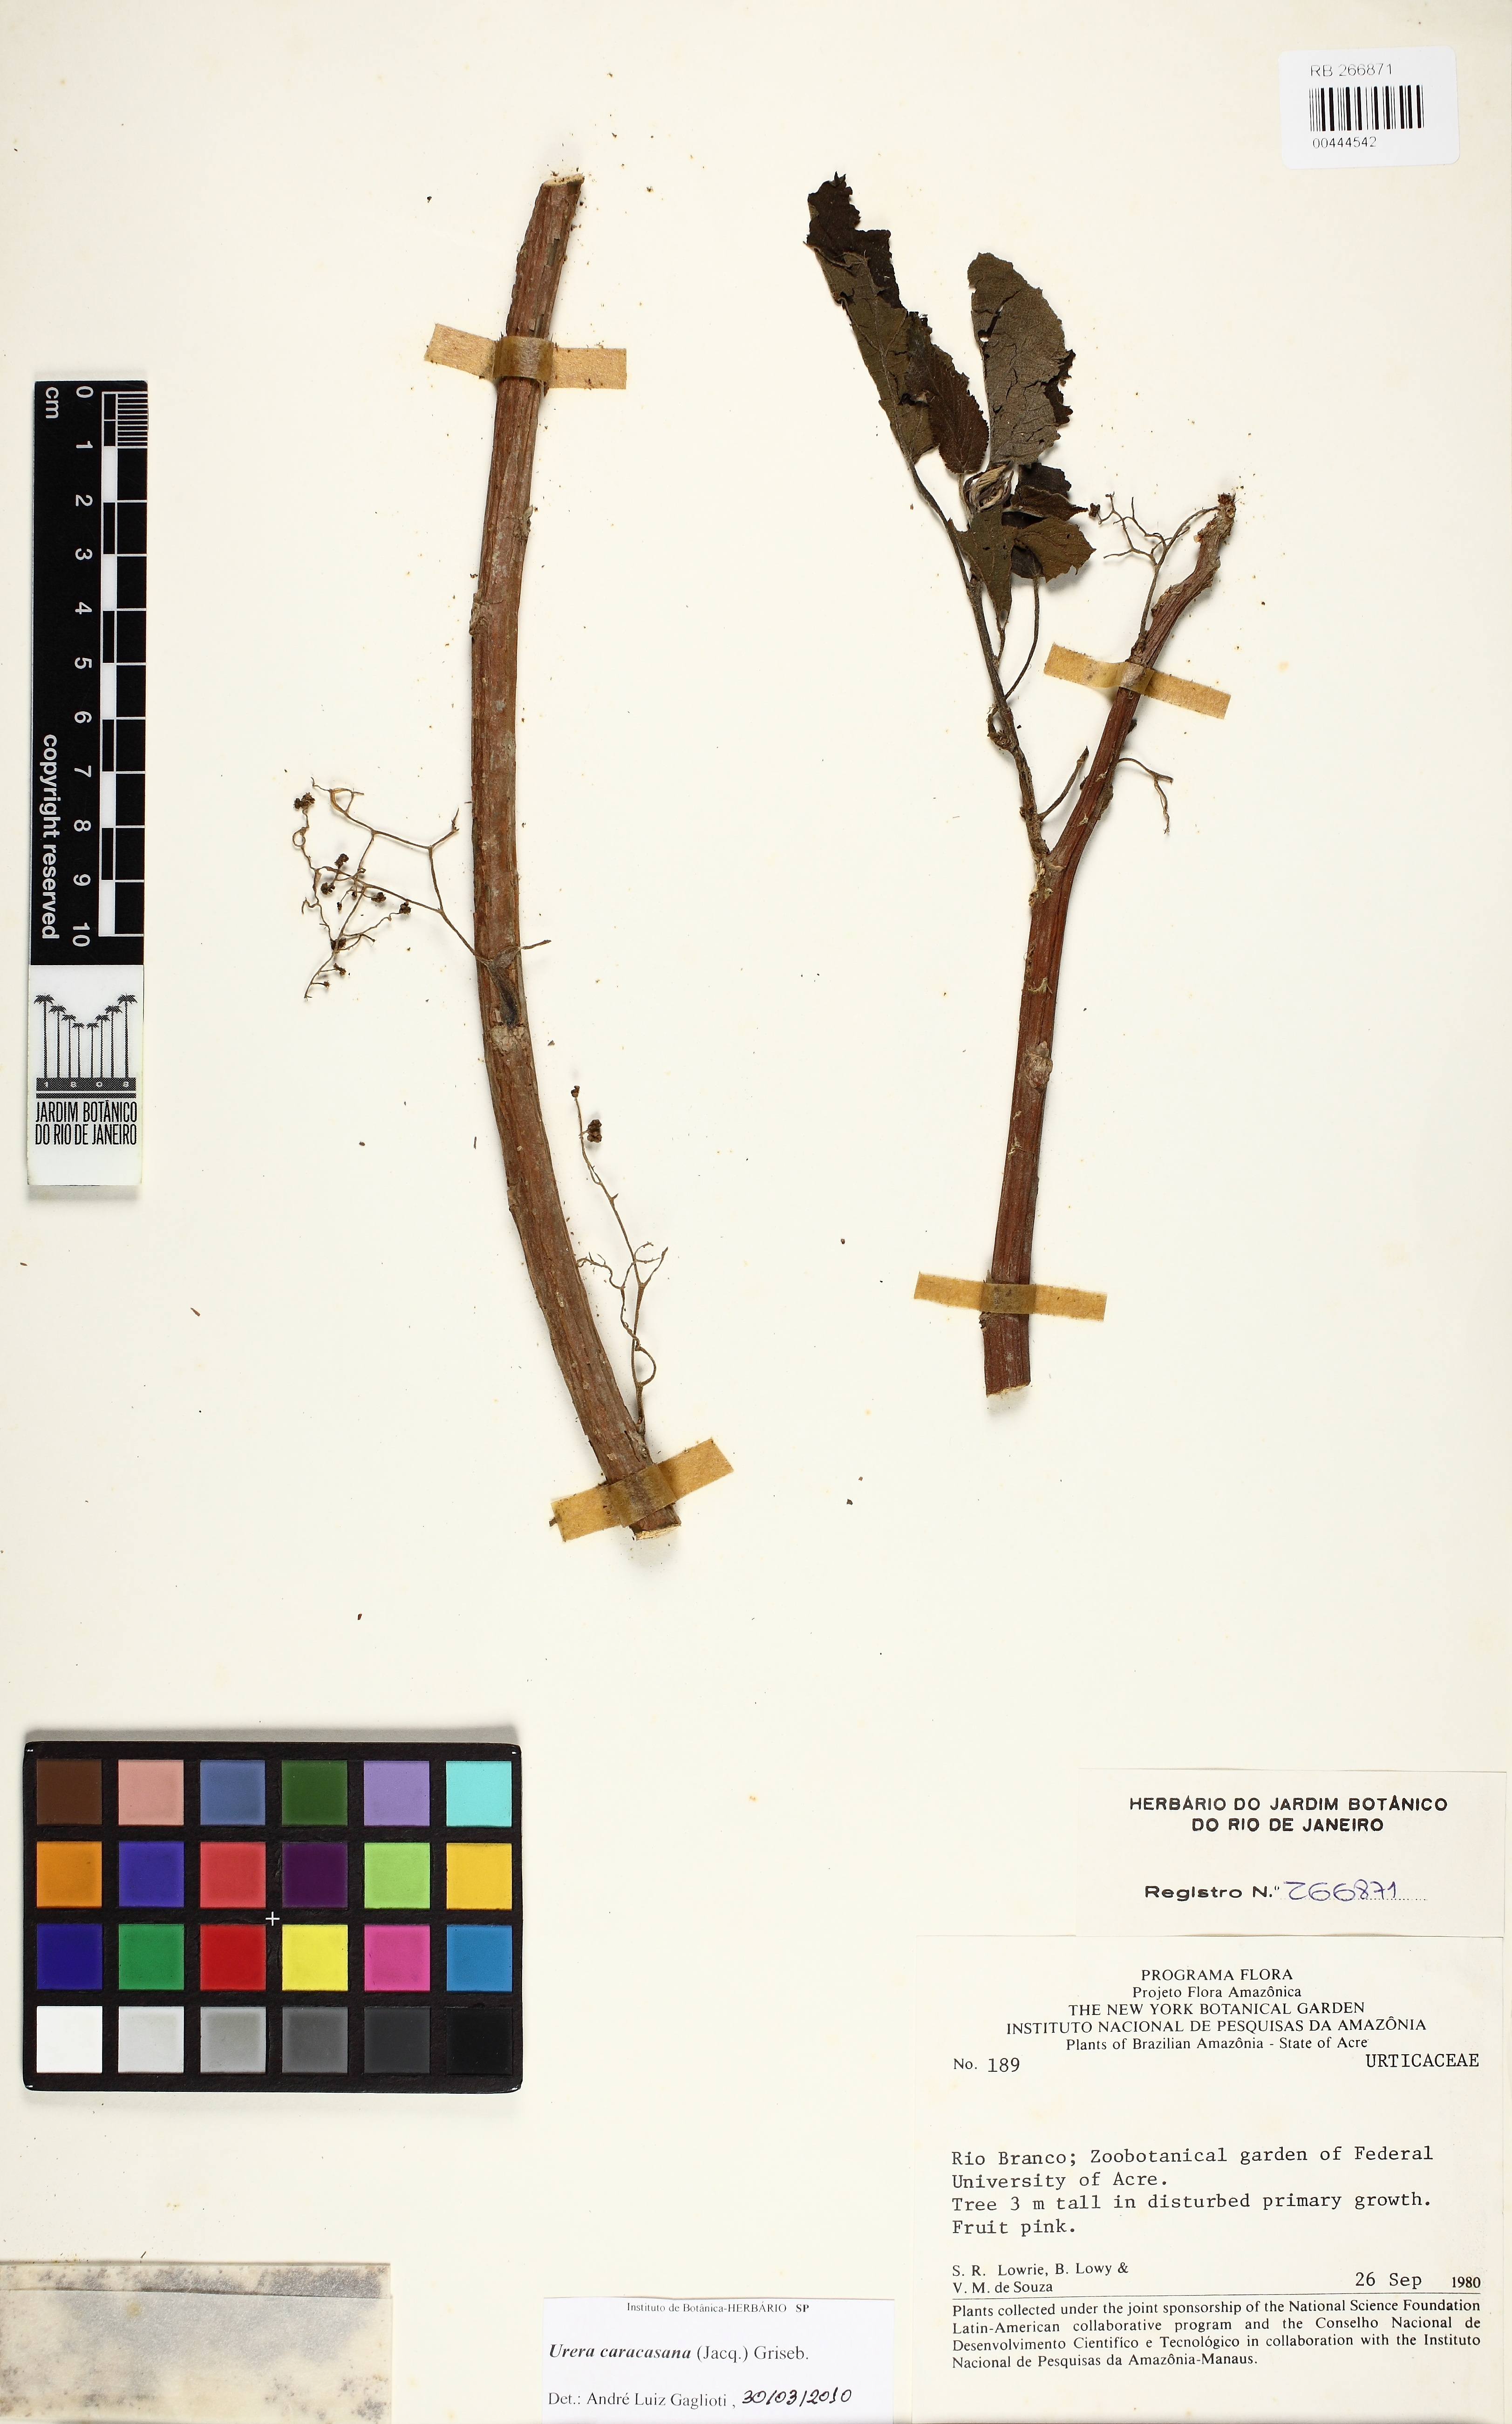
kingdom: Plantae
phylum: Tracheophyta
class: Magnoliopsida
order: Rosales
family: Urticaceae
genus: Urera
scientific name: Urera caracasana
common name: Flameberry
